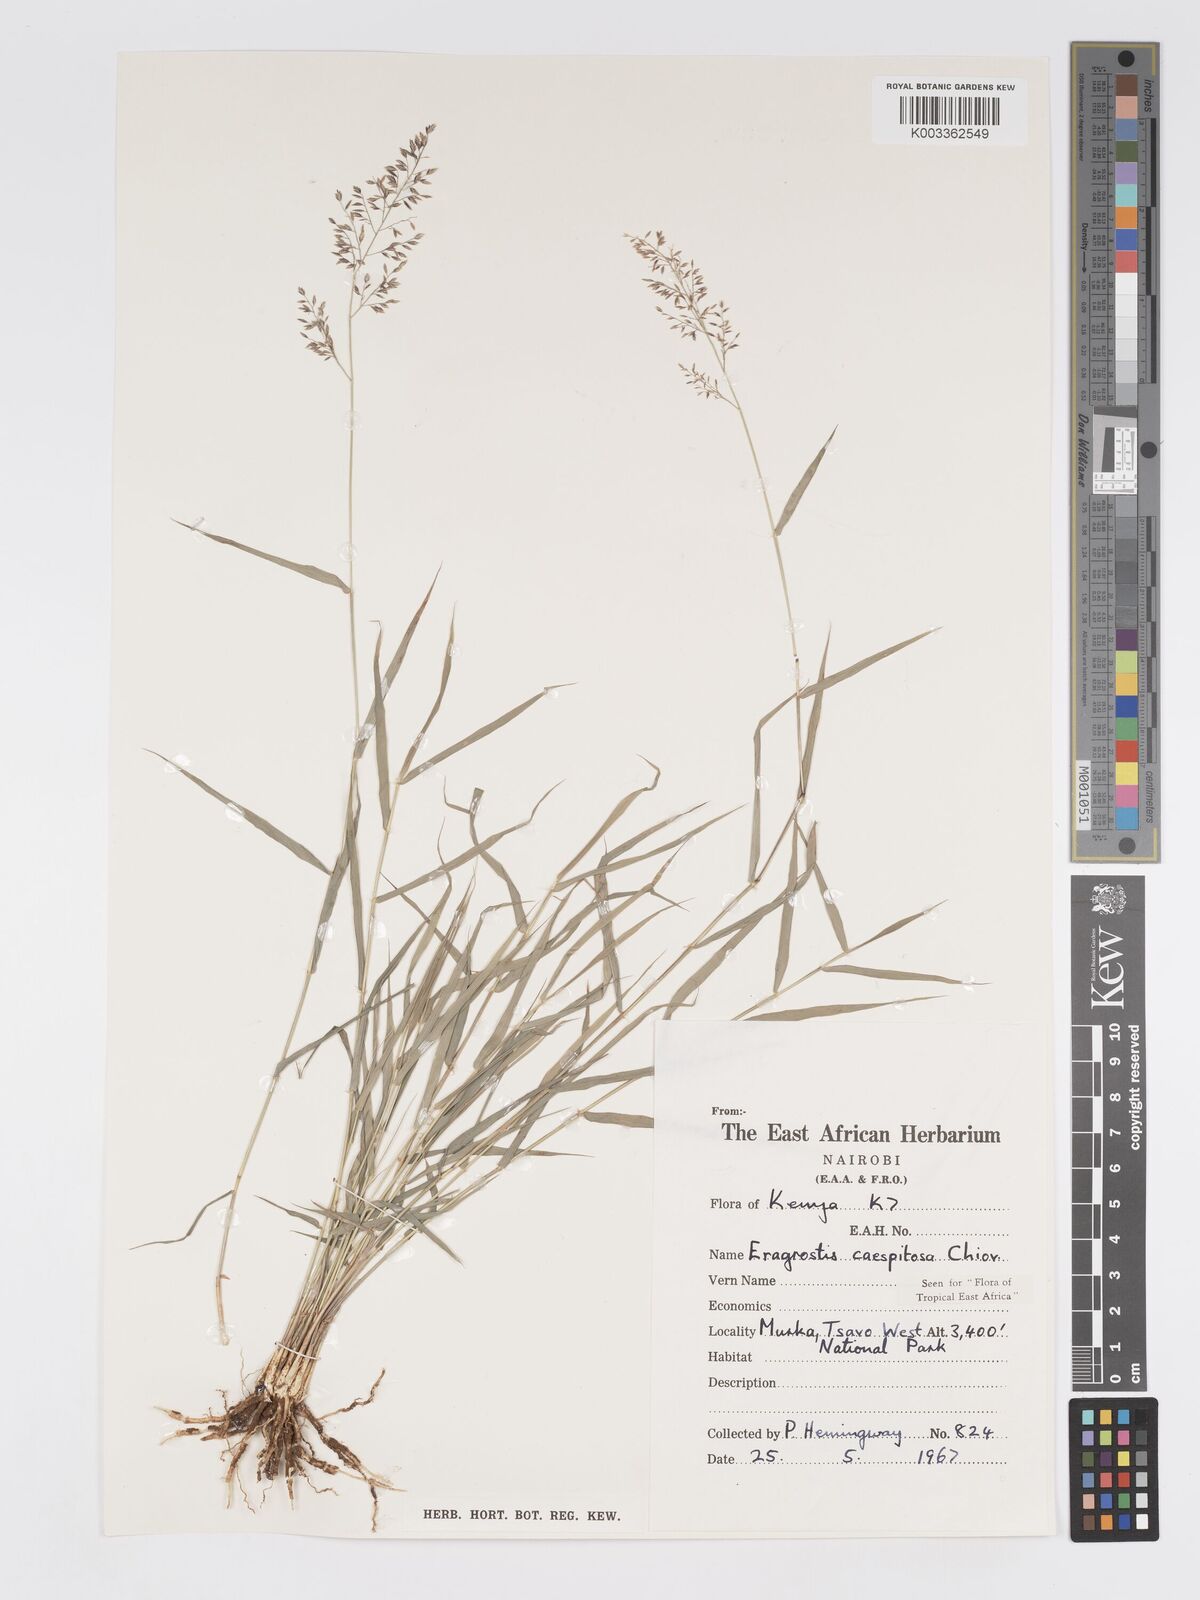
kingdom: Plantae
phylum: Tracheophyta
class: Liliopsida
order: Poales
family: Poaceae
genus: Eragrostis
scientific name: Eragrostis caespitosa
